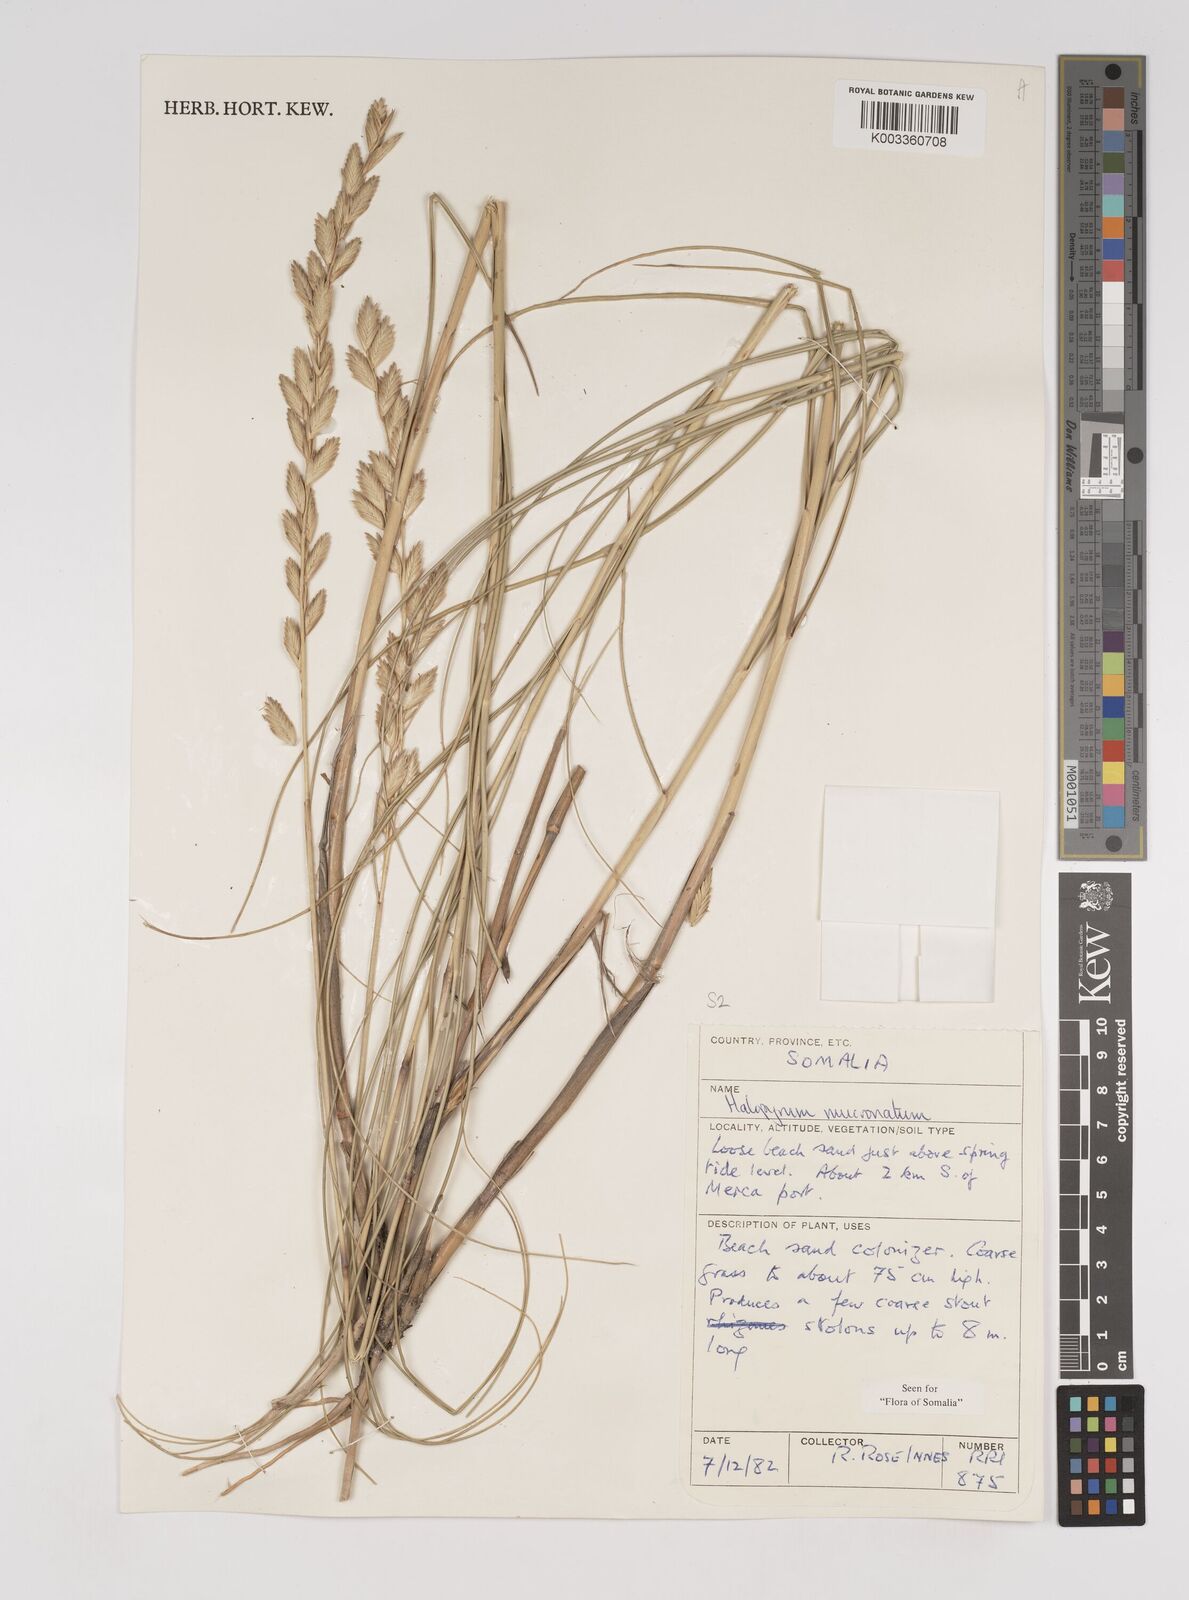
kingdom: Plantae
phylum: Tracheophyta
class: Liliopsida
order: Poales
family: Poaceae
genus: Halopyrum
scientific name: Halopyrum mucronatum
